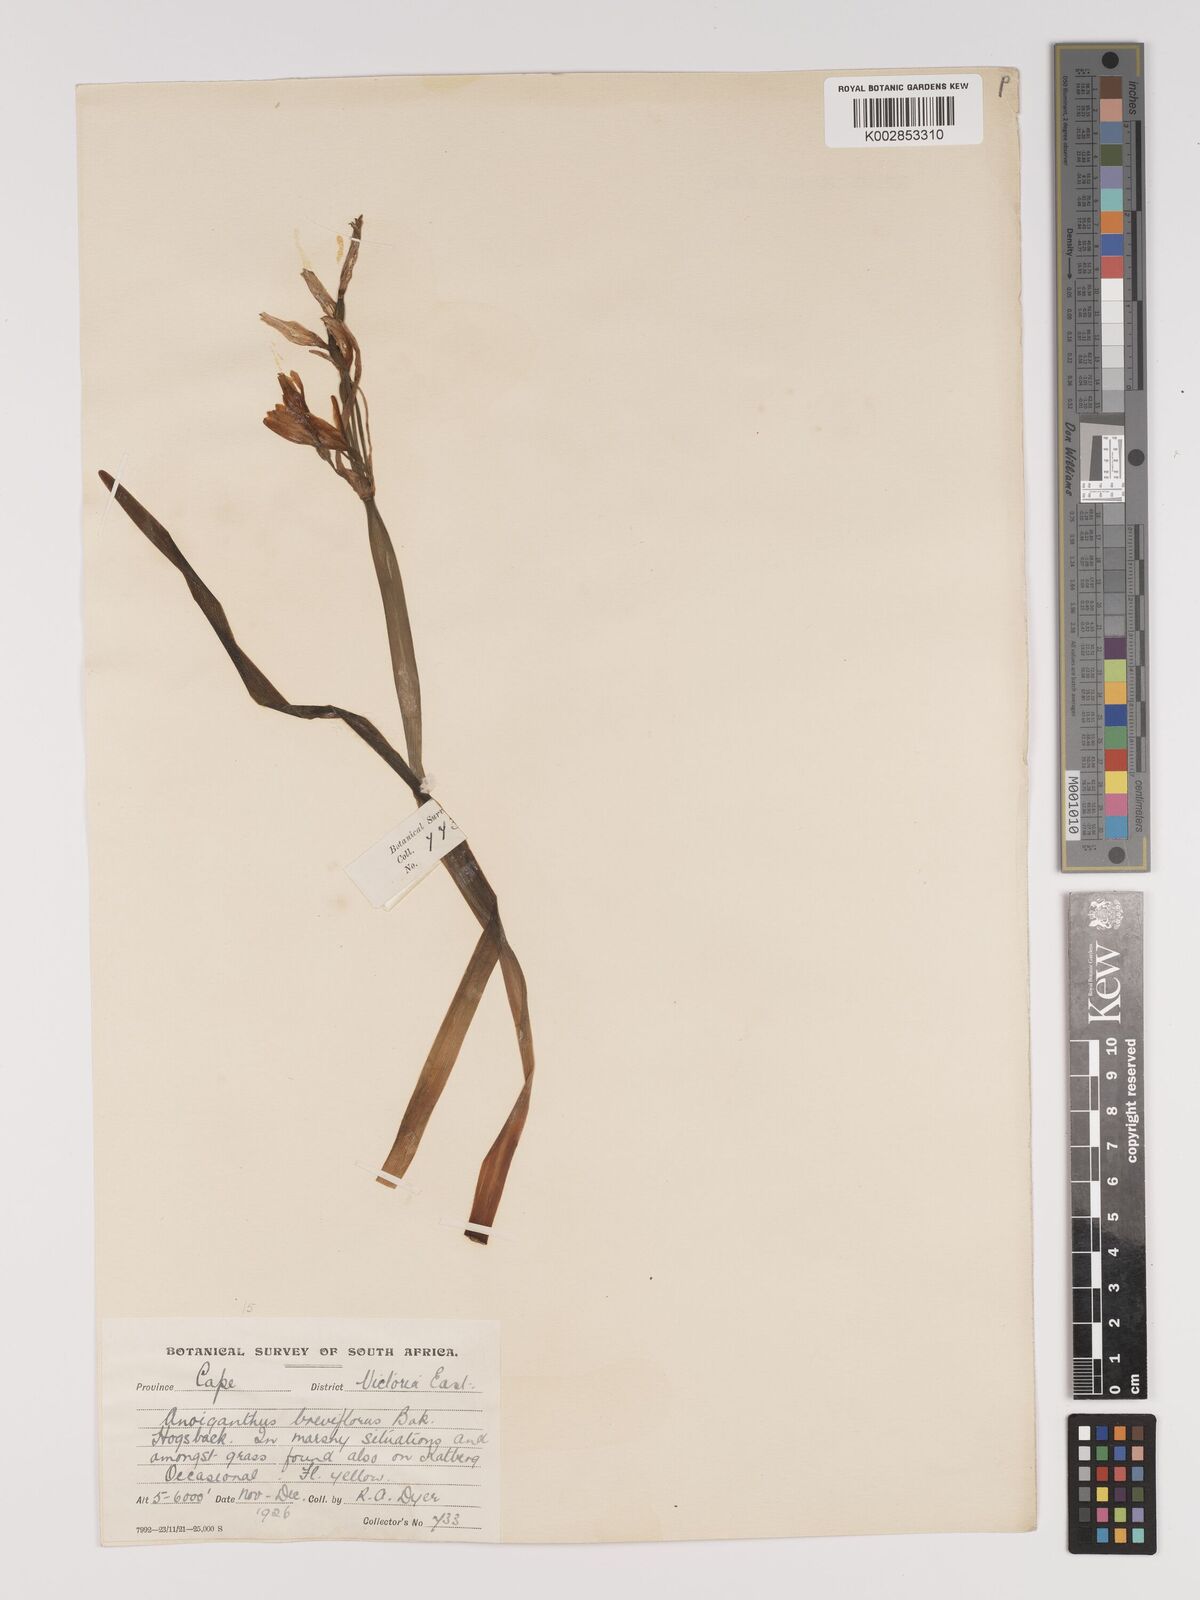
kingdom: Plantae
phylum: Tracheophyta
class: Liliopsida
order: Asparagales
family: Amaryllidaceae
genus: Cyrtanthus
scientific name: Cyrtanthus breviflorus
